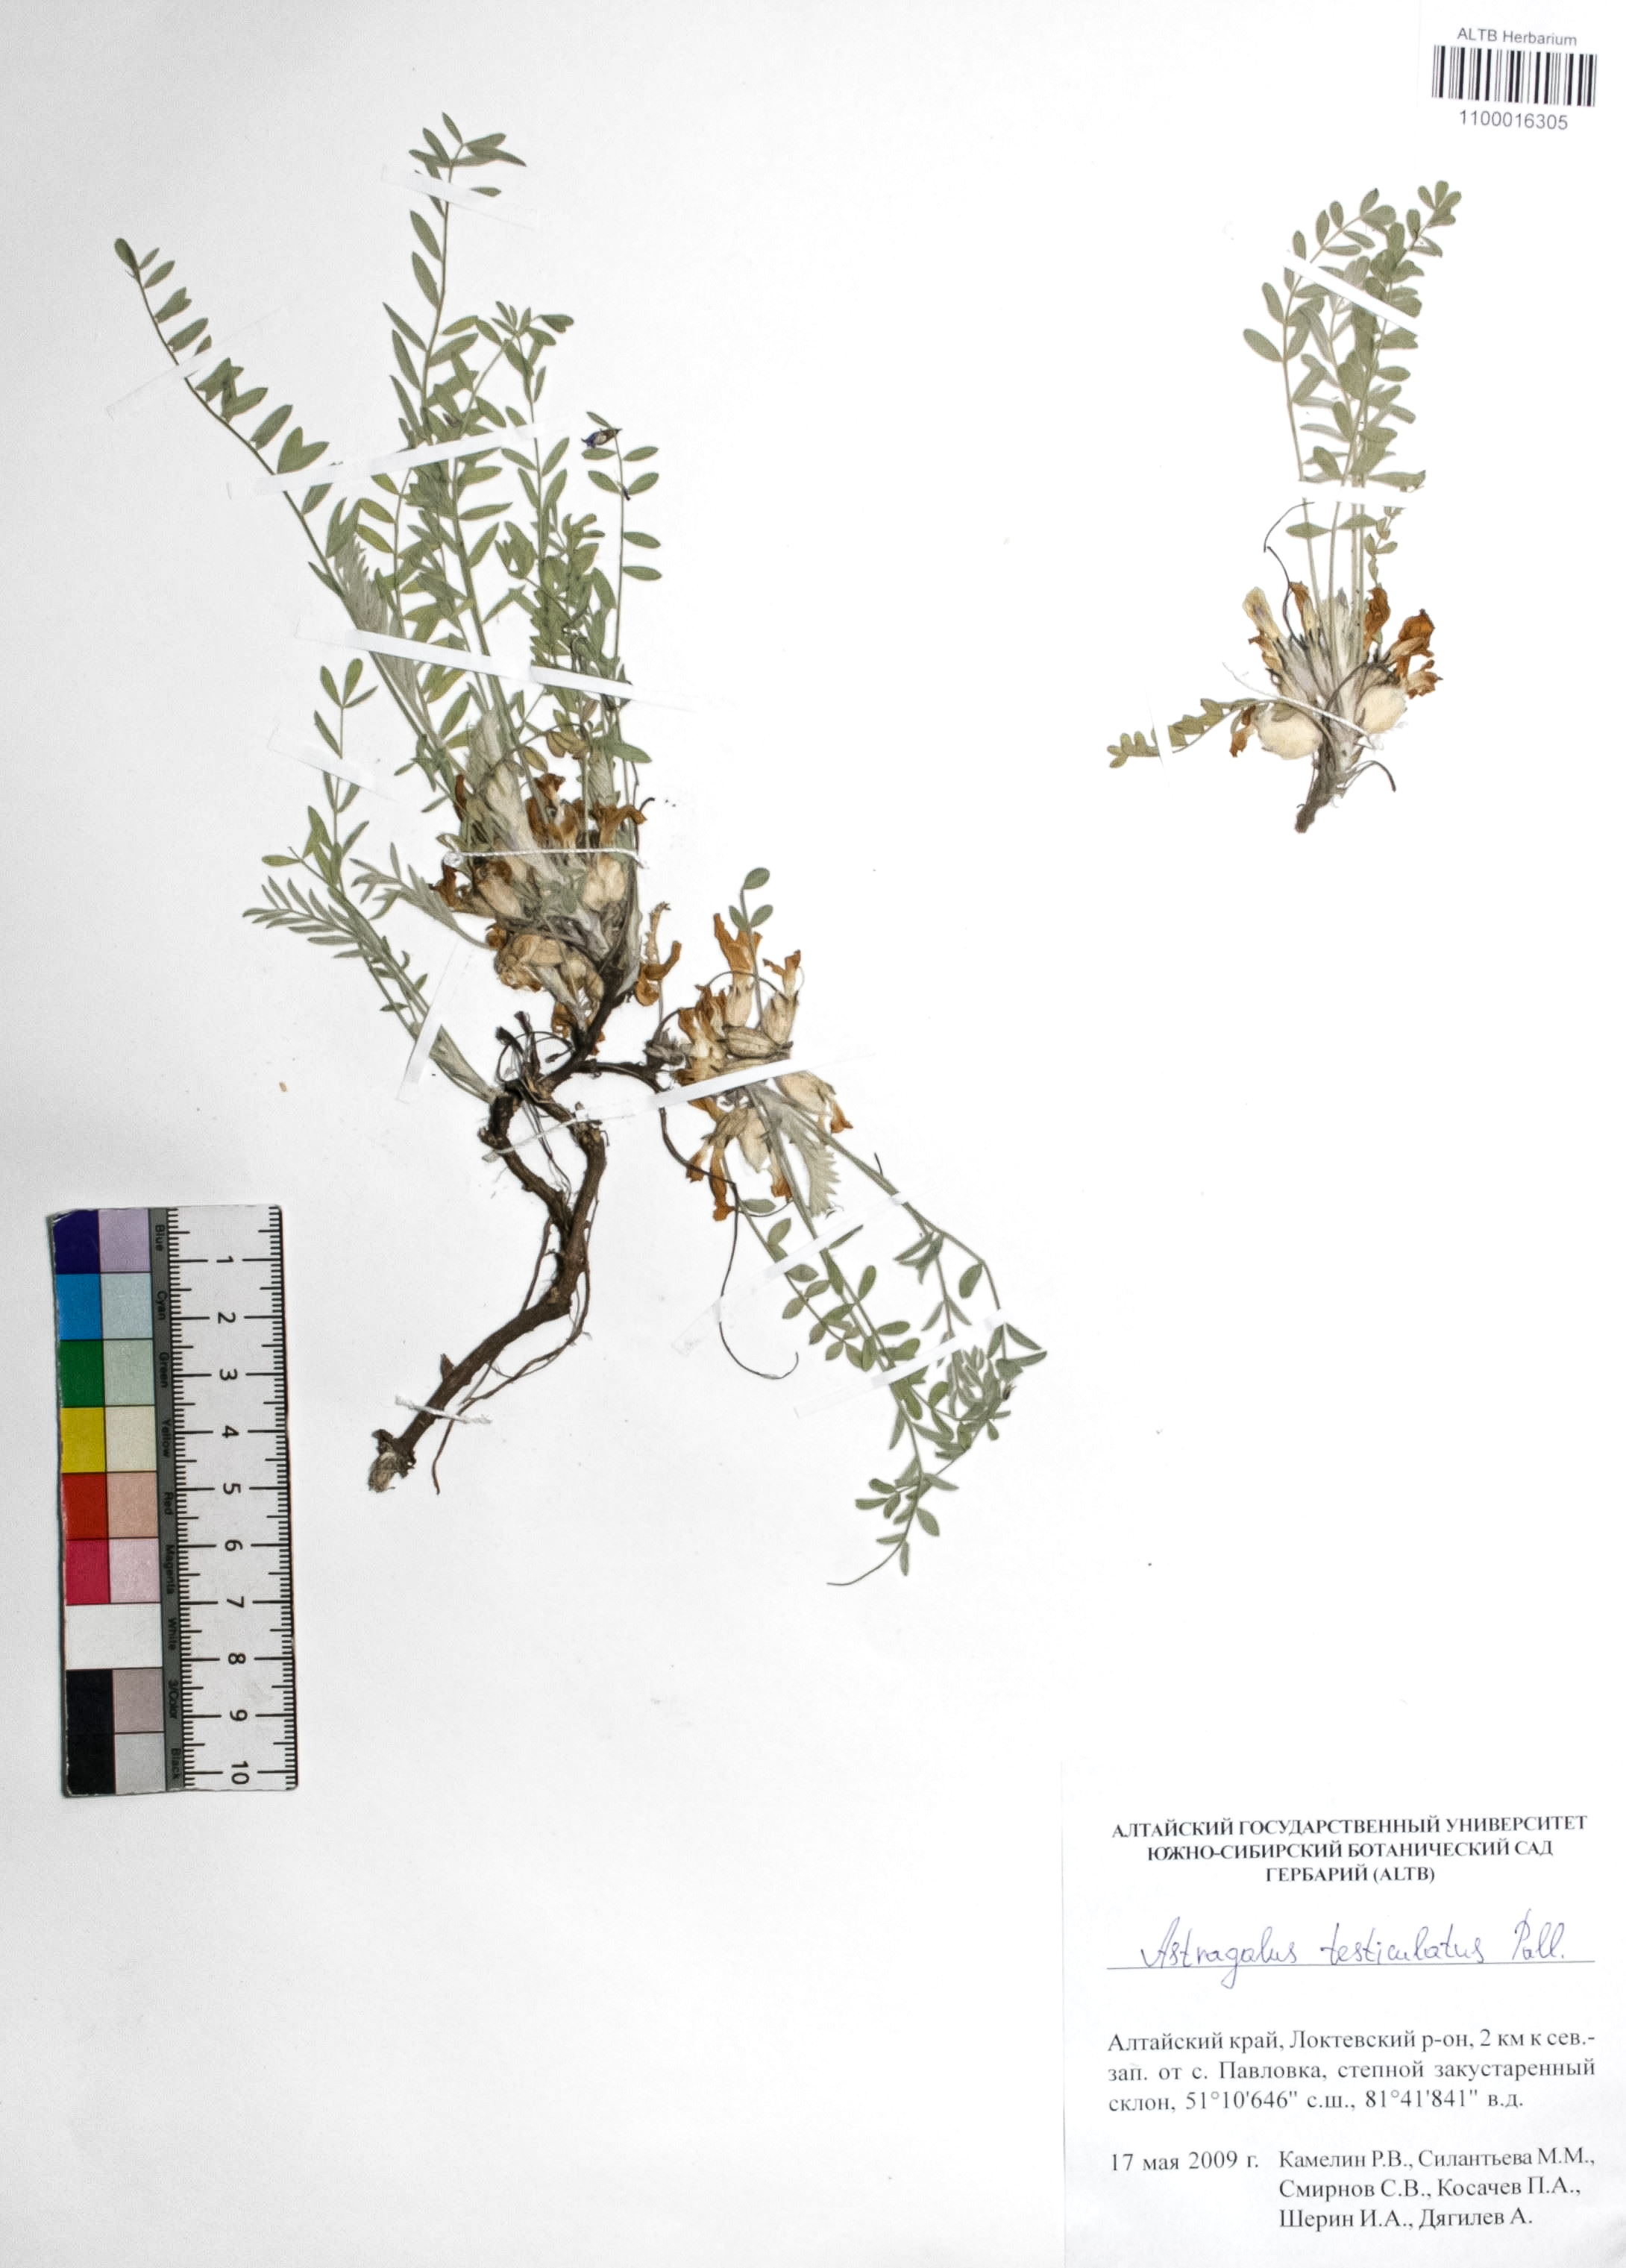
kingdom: Plantae
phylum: Tracheophyta
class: Magnoliopsida
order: Fabales
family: Fabaceae
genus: Astragalus
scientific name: Astragalus testiculatus
